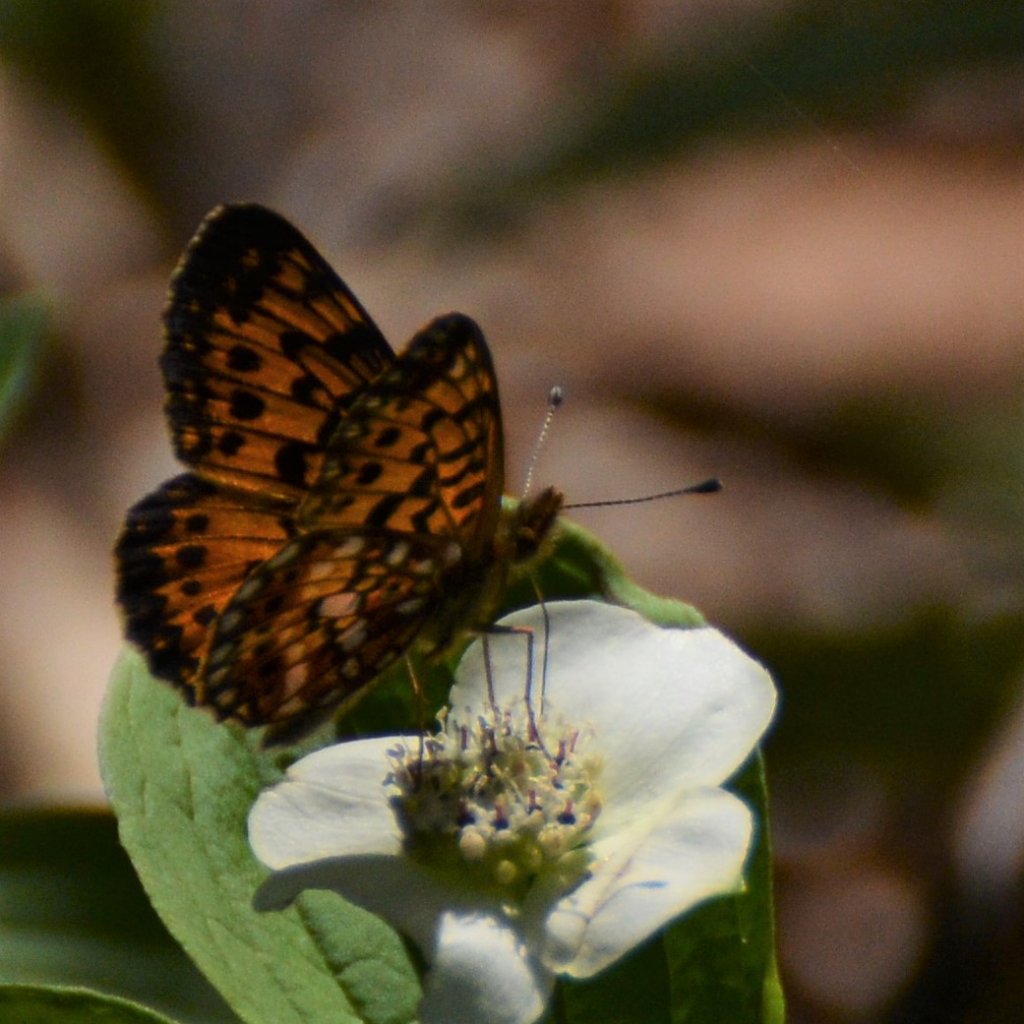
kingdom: Animalia
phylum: Arthropoda
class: Insecta
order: Lepidoptera
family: Nymphalidae
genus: Boloria
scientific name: Boloria selene
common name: Silver-bordered Fritillary
